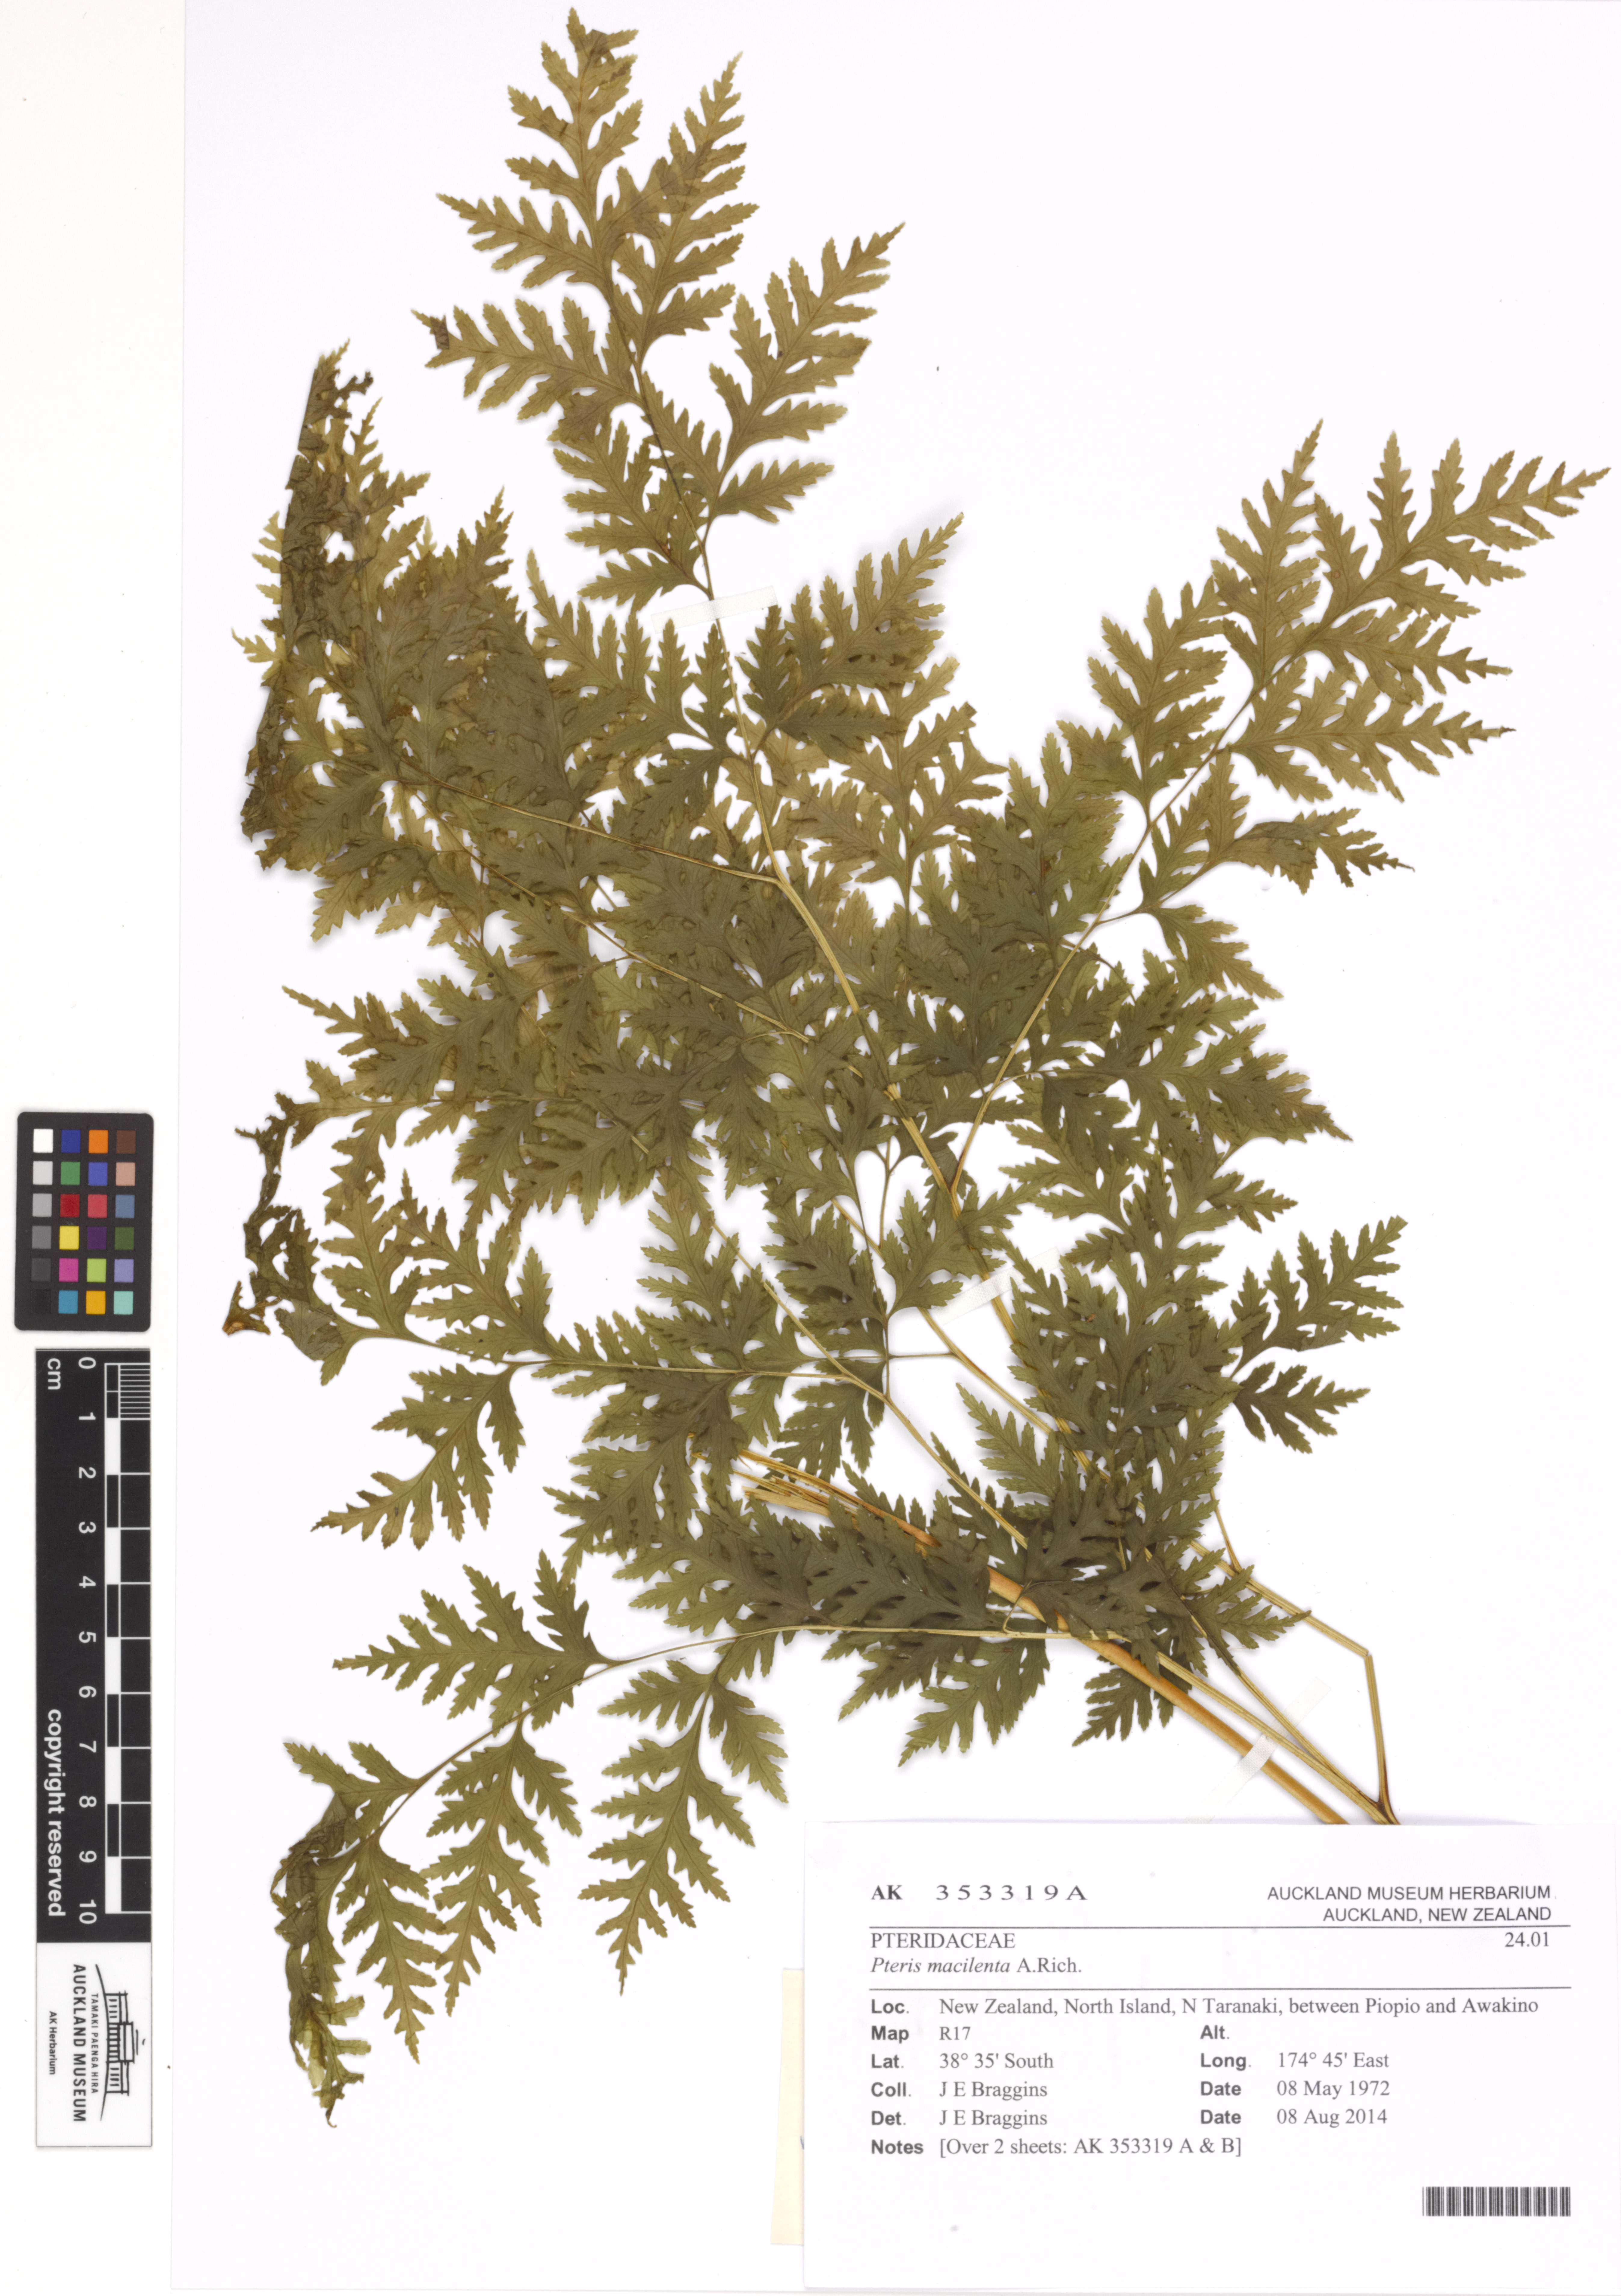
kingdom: Plantae
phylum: Tracheophyta
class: Polypodiopsida
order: Polypodiales
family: Pteridaceae
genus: Pteris
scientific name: Pteris macilenta
